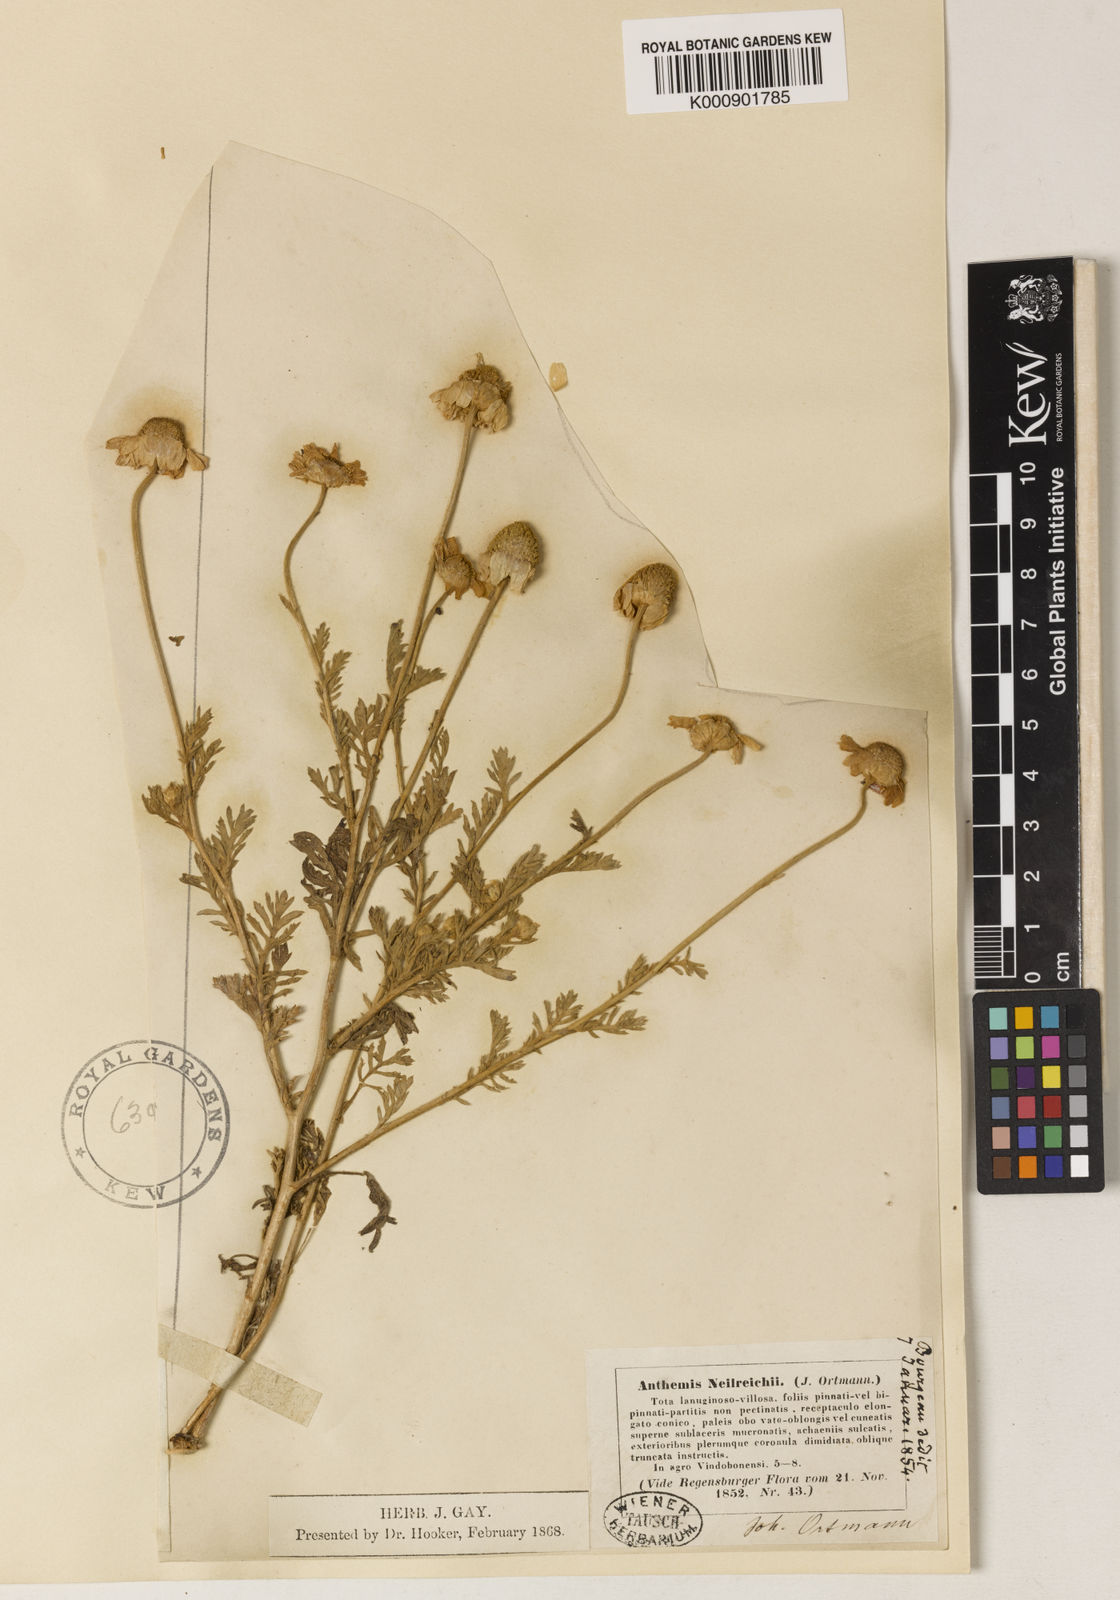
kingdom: Plantae
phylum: Tracheophyta
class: Magnoliopsida
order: Asterales
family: Asteraceae
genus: Anthemis
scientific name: Anthemis ruthenica
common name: Eastern chamomile
